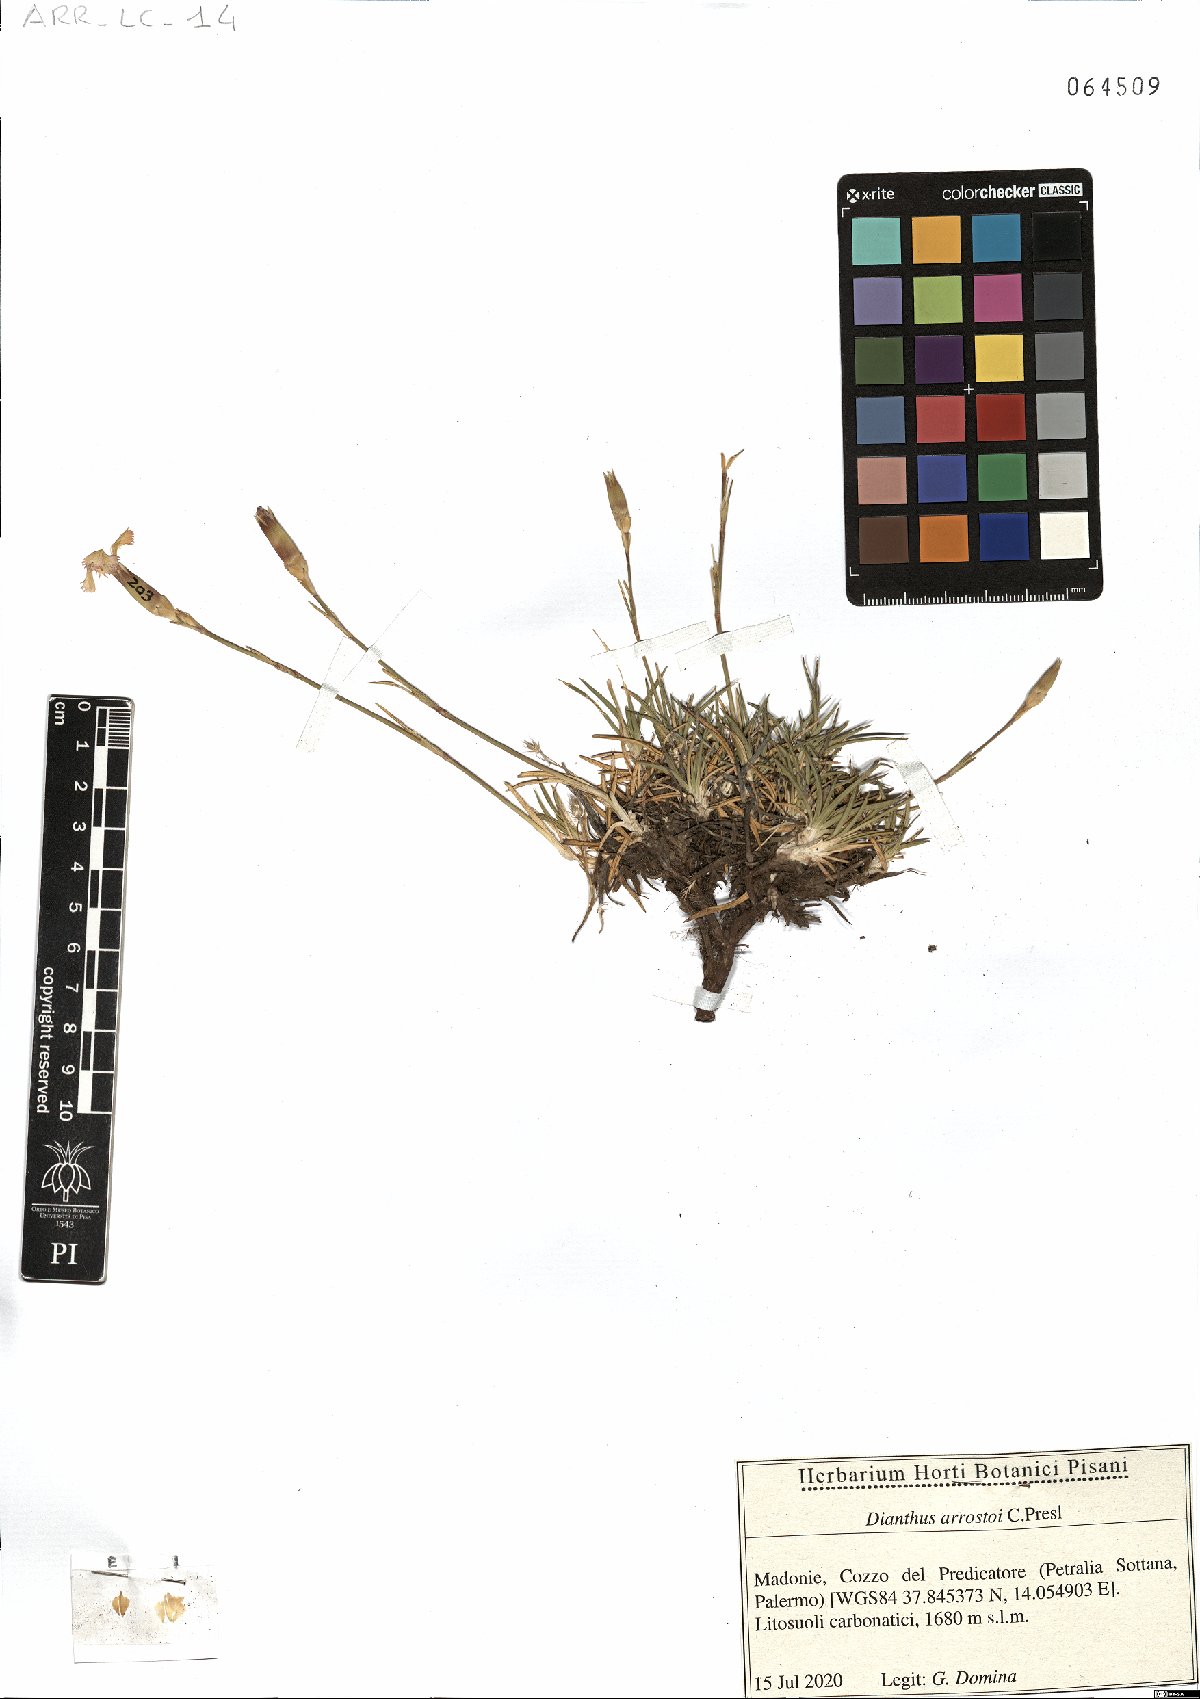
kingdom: Plantae
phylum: Tracheophyta
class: Magnoliopsida
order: Caryophyllales
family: Caryophyllaceae
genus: Dianthus
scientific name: Dianthus arrostoi
